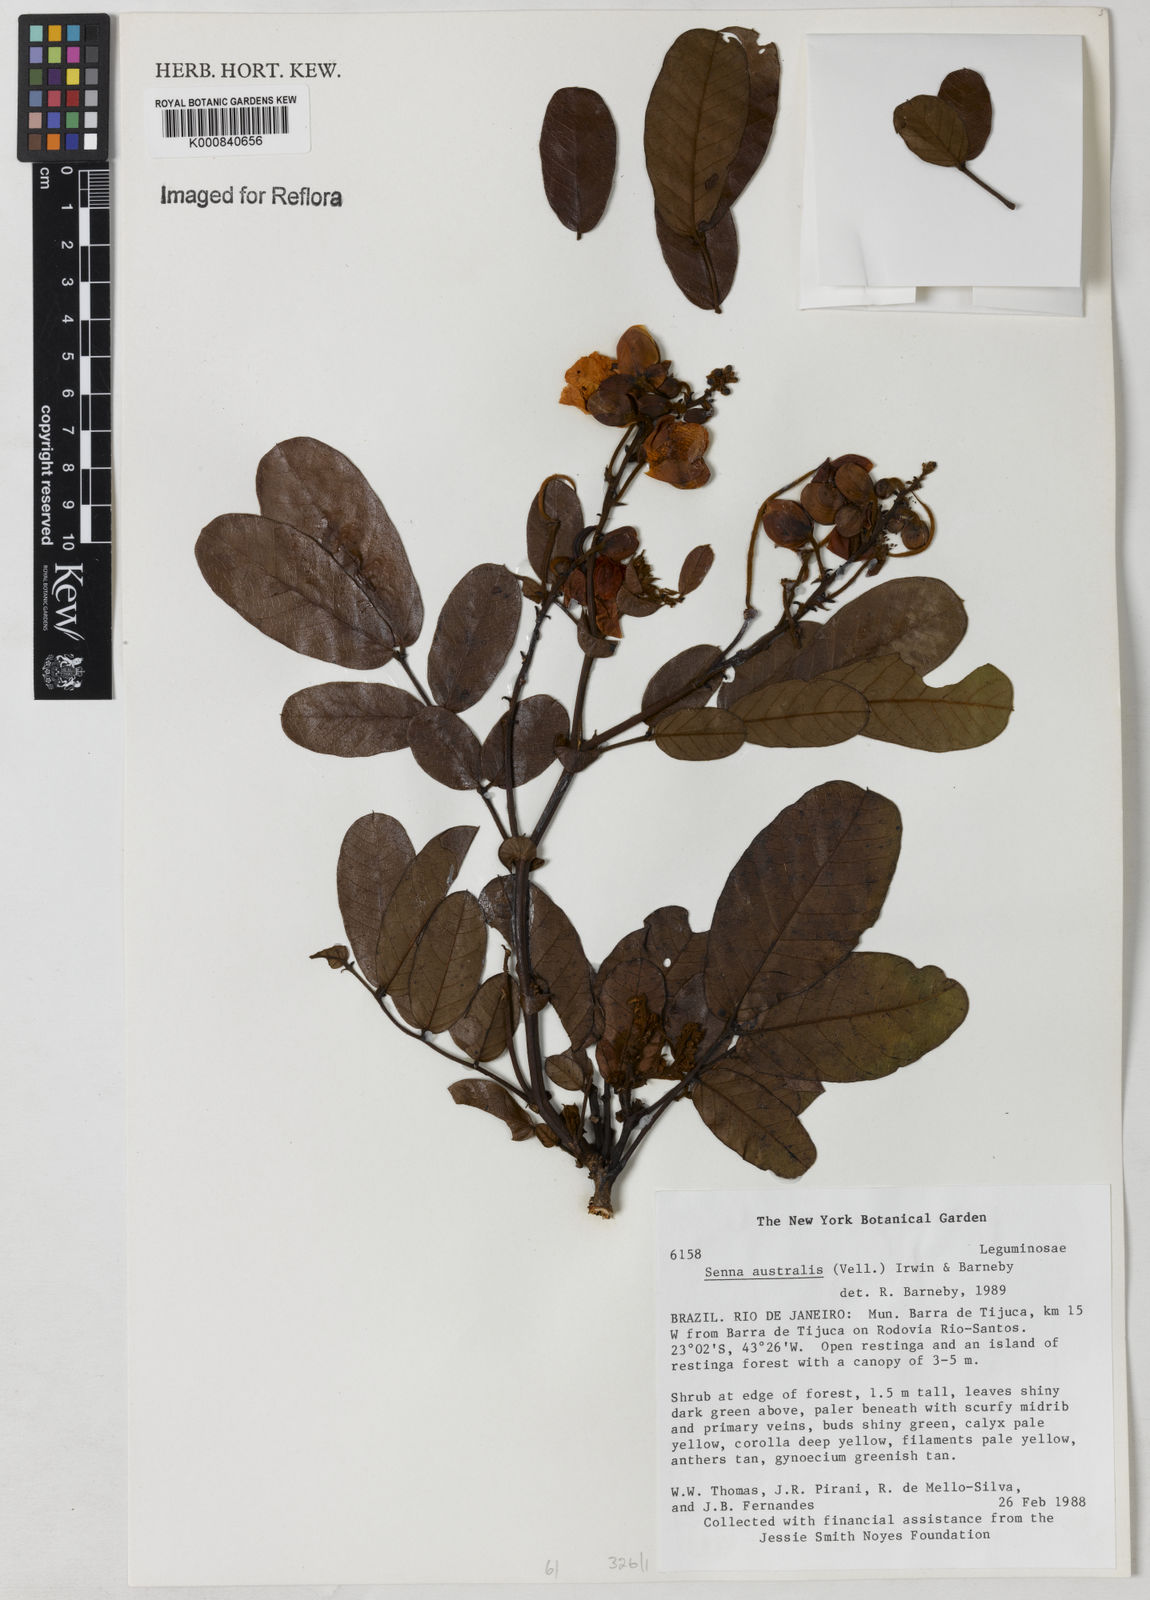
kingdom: Plantae
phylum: Tracheophyta
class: Magnoliopsida
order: Fabales
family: Fabaceae
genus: Senna
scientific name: Senna appendiculata
